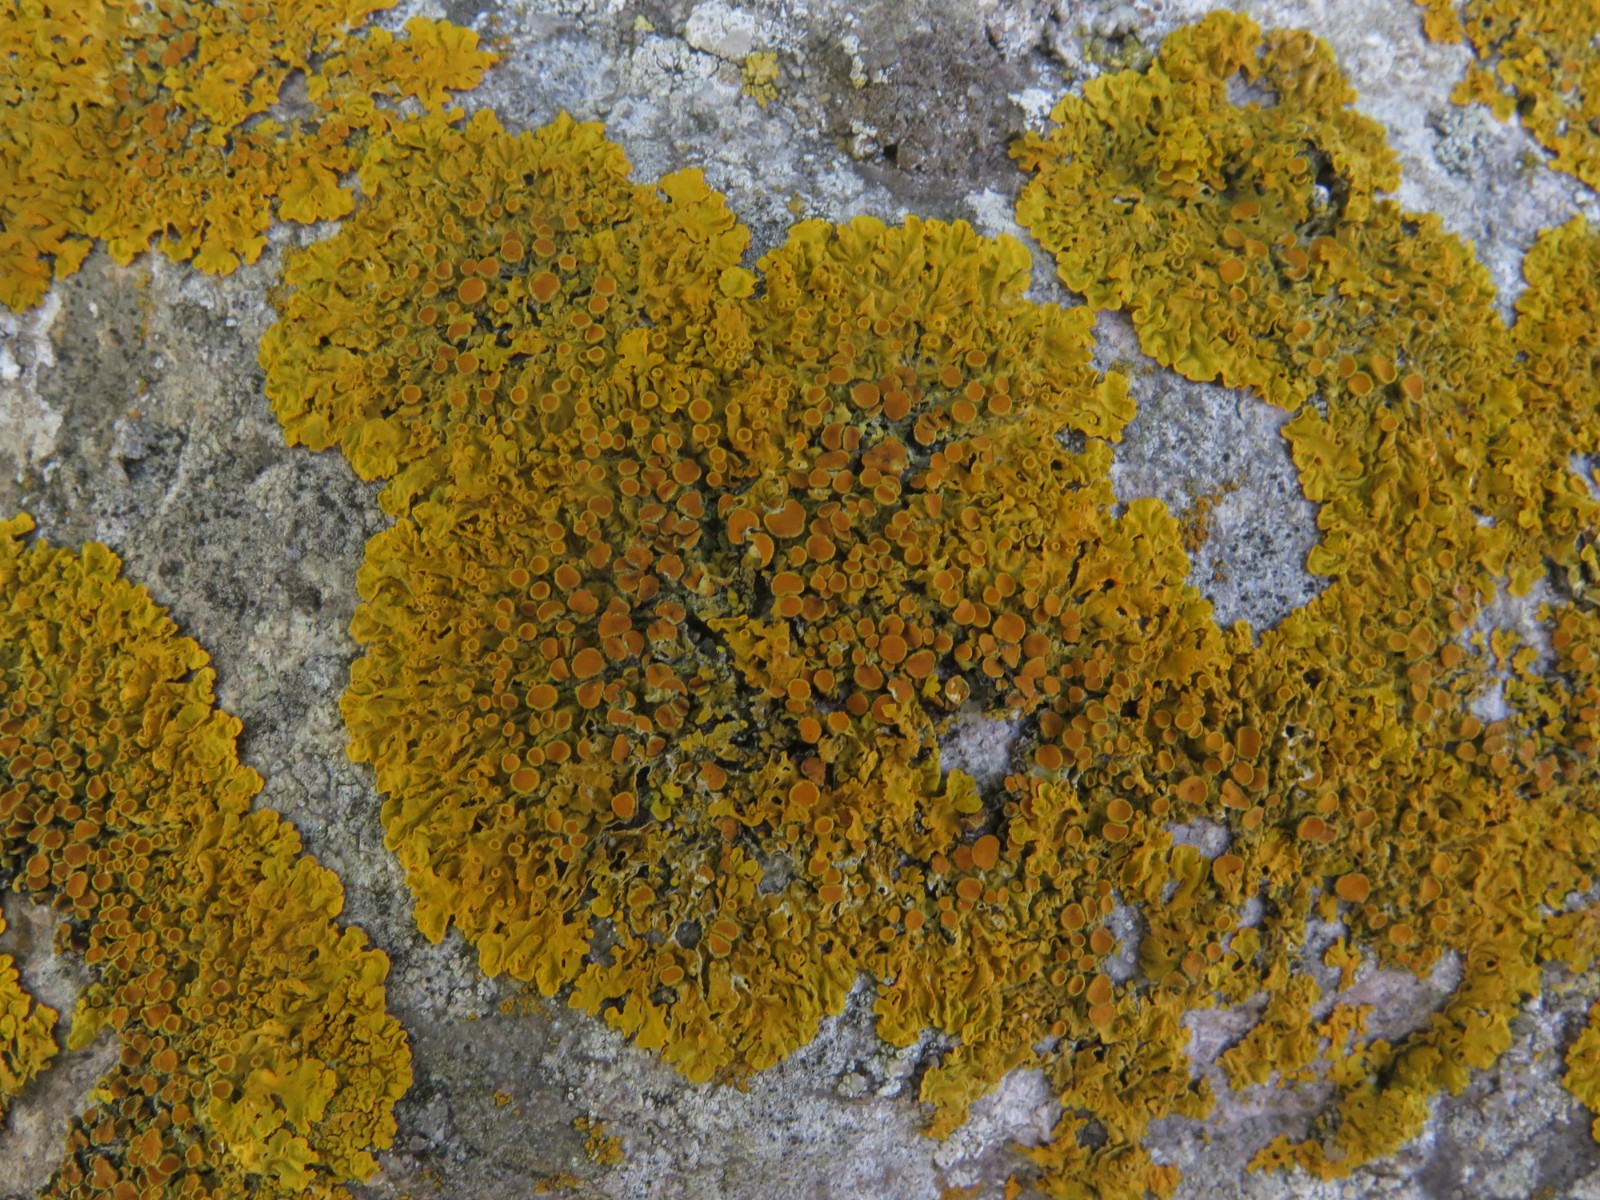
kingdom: Fungi
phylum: Ascomycota
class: Lecanoromycetes
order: Teloschistales
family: Teloschistaceae
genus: Xanthoria
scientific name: Xanthoria parietina
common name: almindelig væggelav
